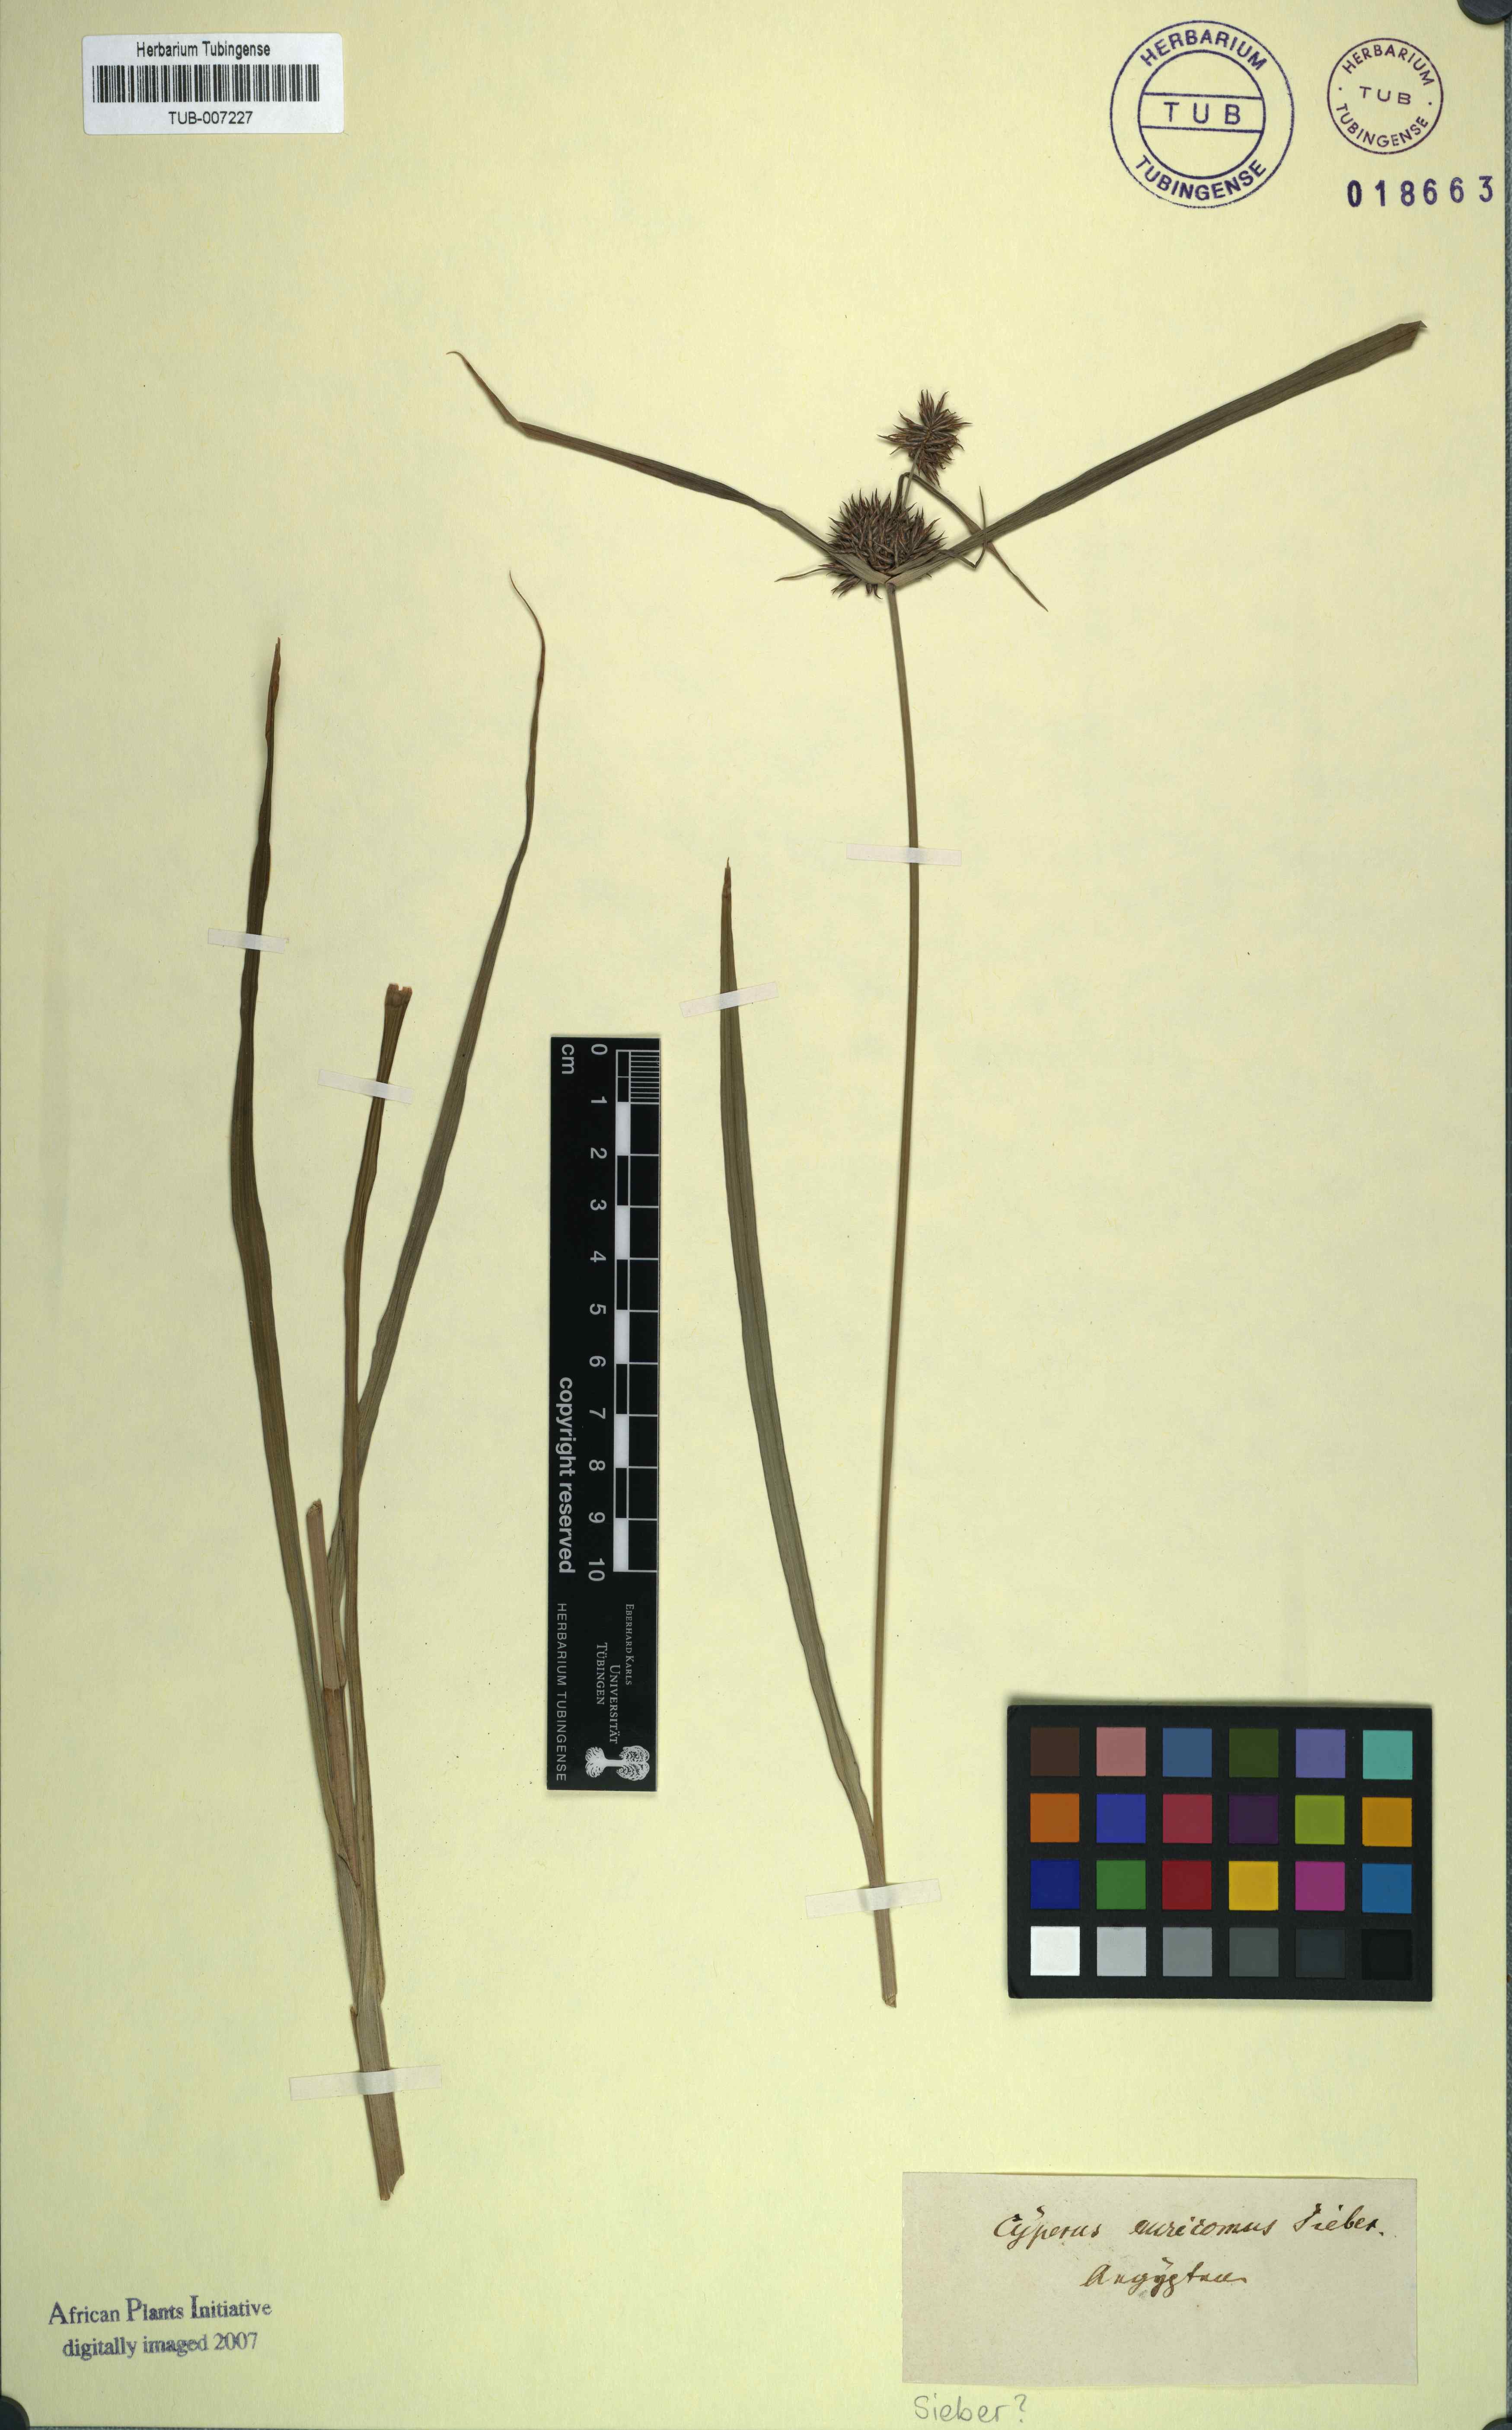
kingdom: Plantae
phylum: Tracheophyta
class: Liliopsida
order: Poales
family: Cyperaceae
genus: Cyperus
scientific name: Cyperus digitatus
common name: Finger flatsedge
